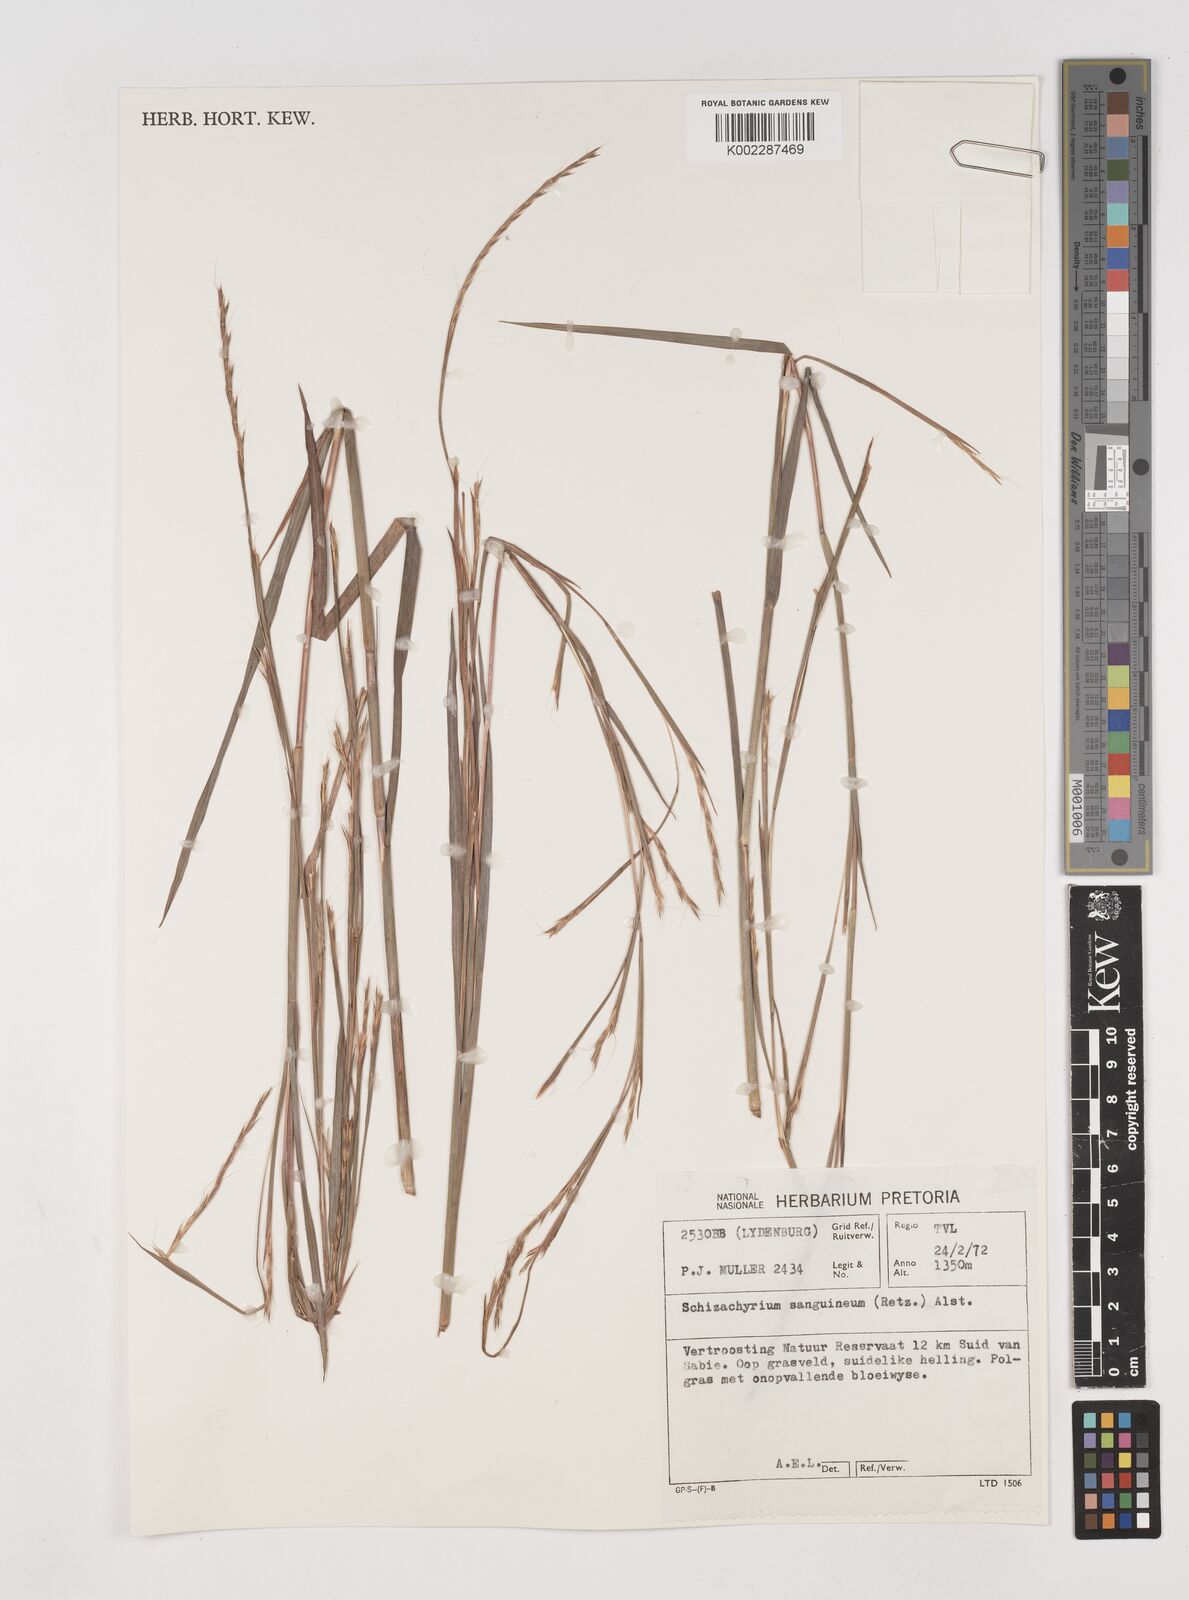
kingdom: Plantae
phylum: Tracheophyta
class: Liliopsida
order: Poales
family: Poaceae
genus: Schizachyrium
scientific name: Schizachyrium sanguineum
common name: Crimson bluestem
